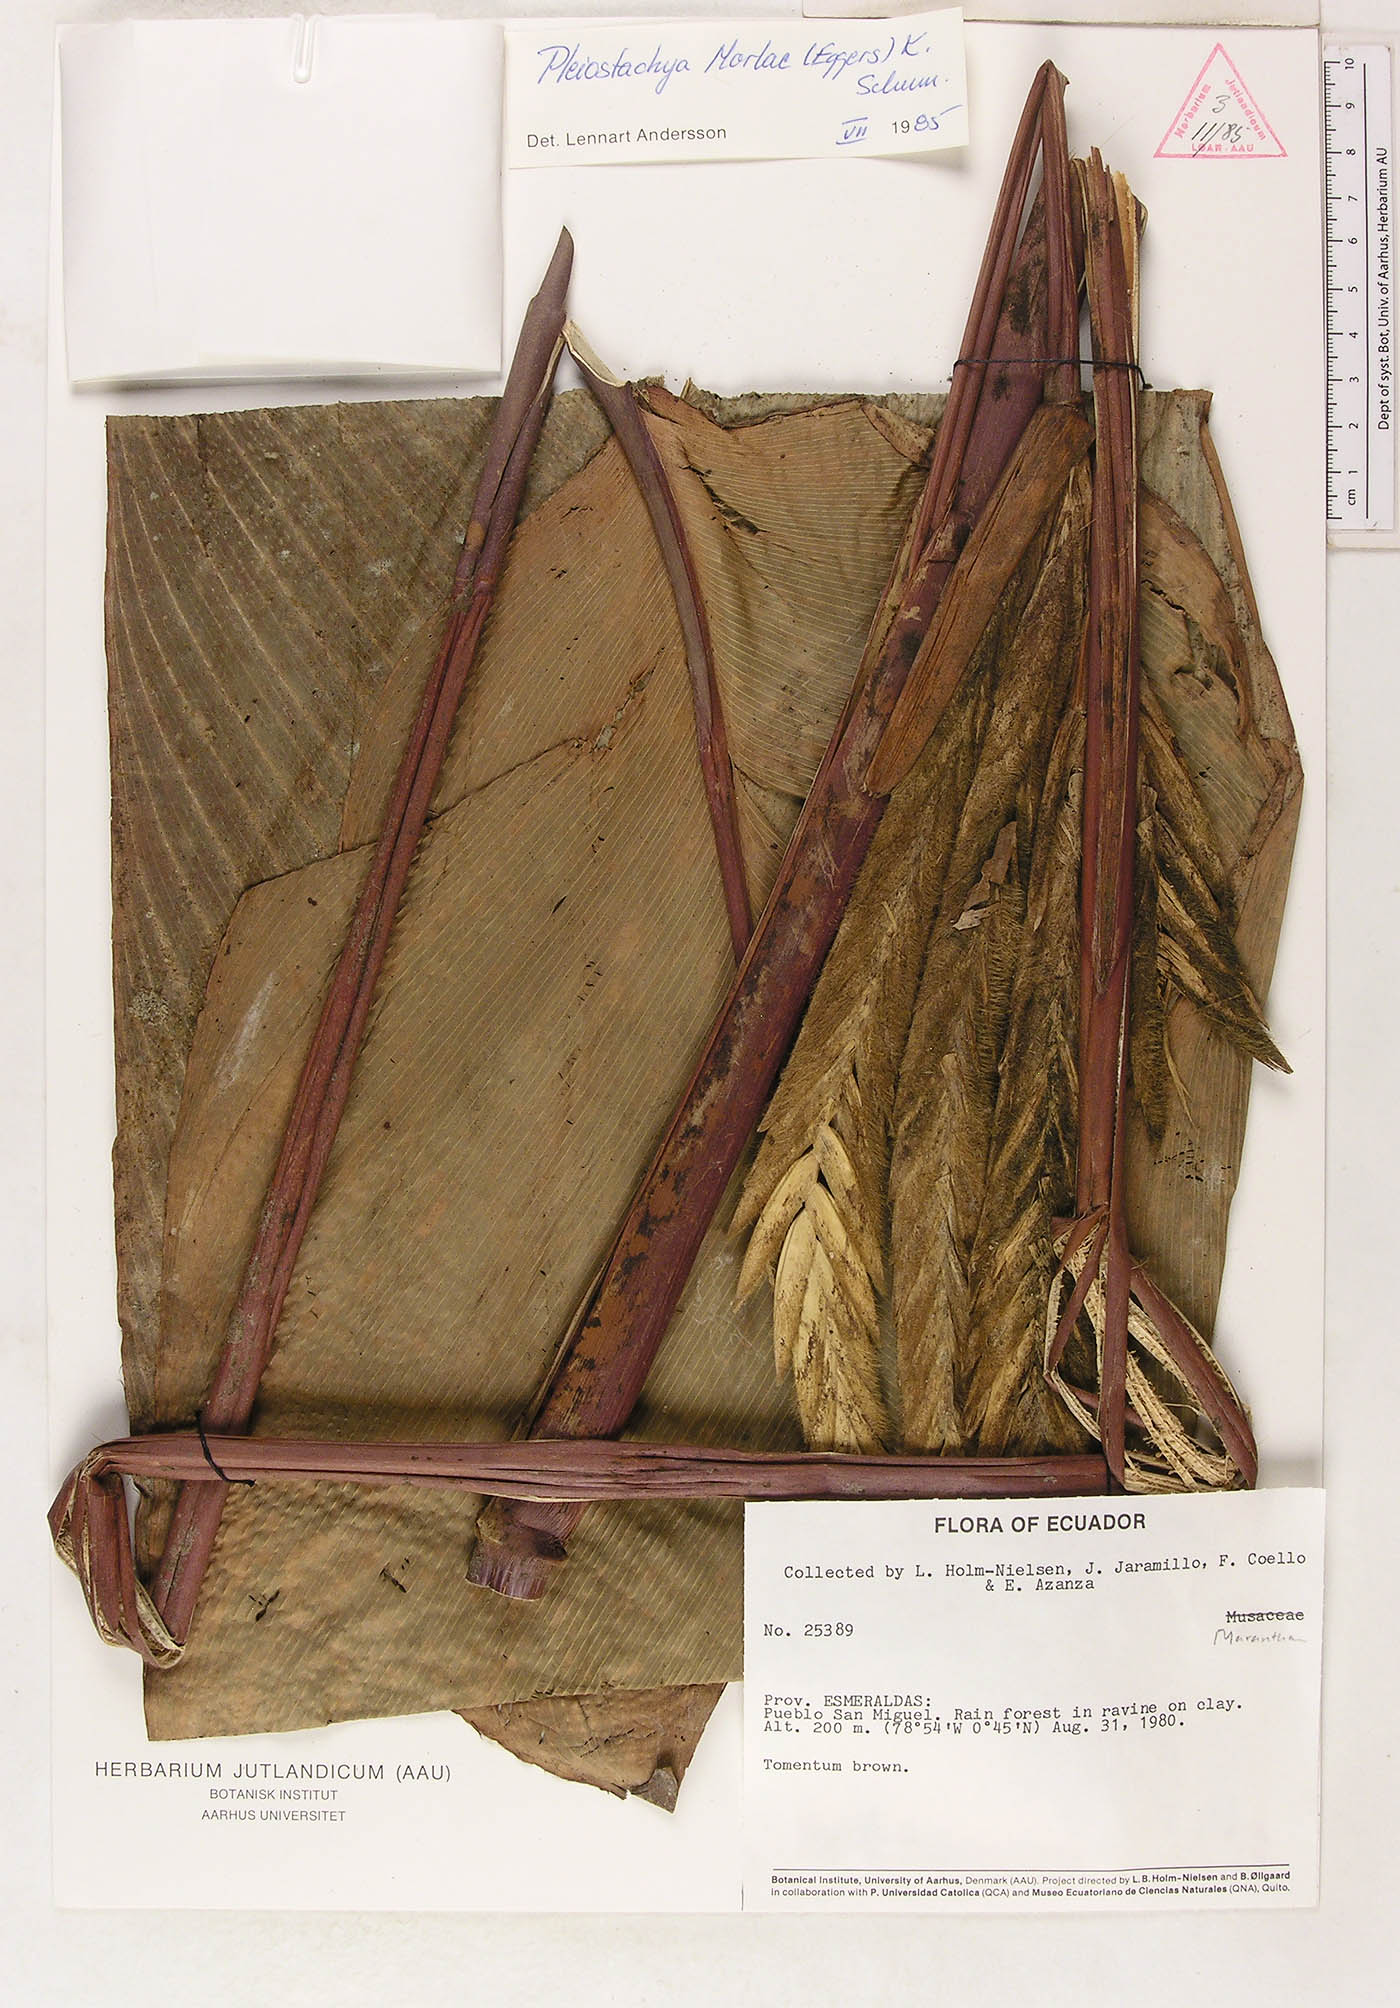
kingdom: Plantae
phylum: Tracheophyta
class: Liliopsida
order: Zingiberales
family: Marantaceae
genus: Pleiostachya
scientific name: Pleiostachya pruinosa
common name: Prayer plant
